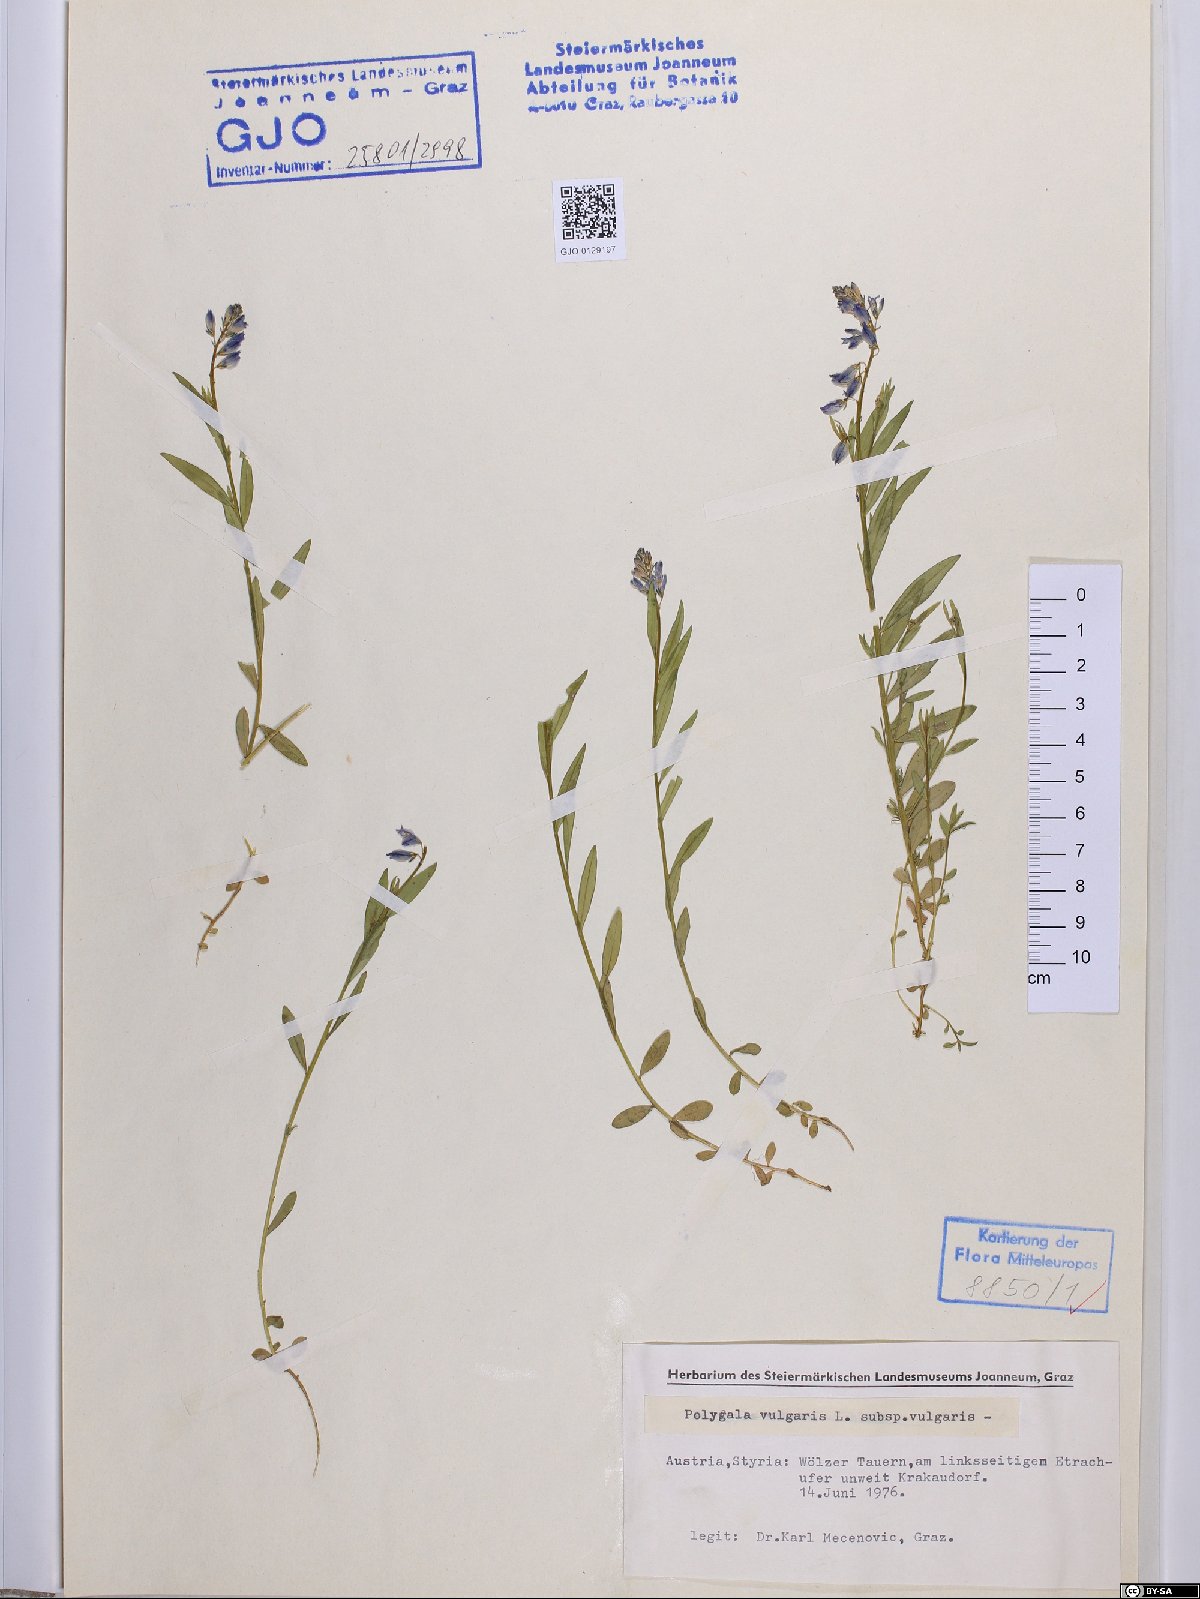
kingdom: Plantae
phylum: Tracheophyta
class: Magnoliopsida
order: Fabales
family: Polygalaceae
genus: Polygala
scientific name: Polygala vulgaris
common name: Common milkwort
